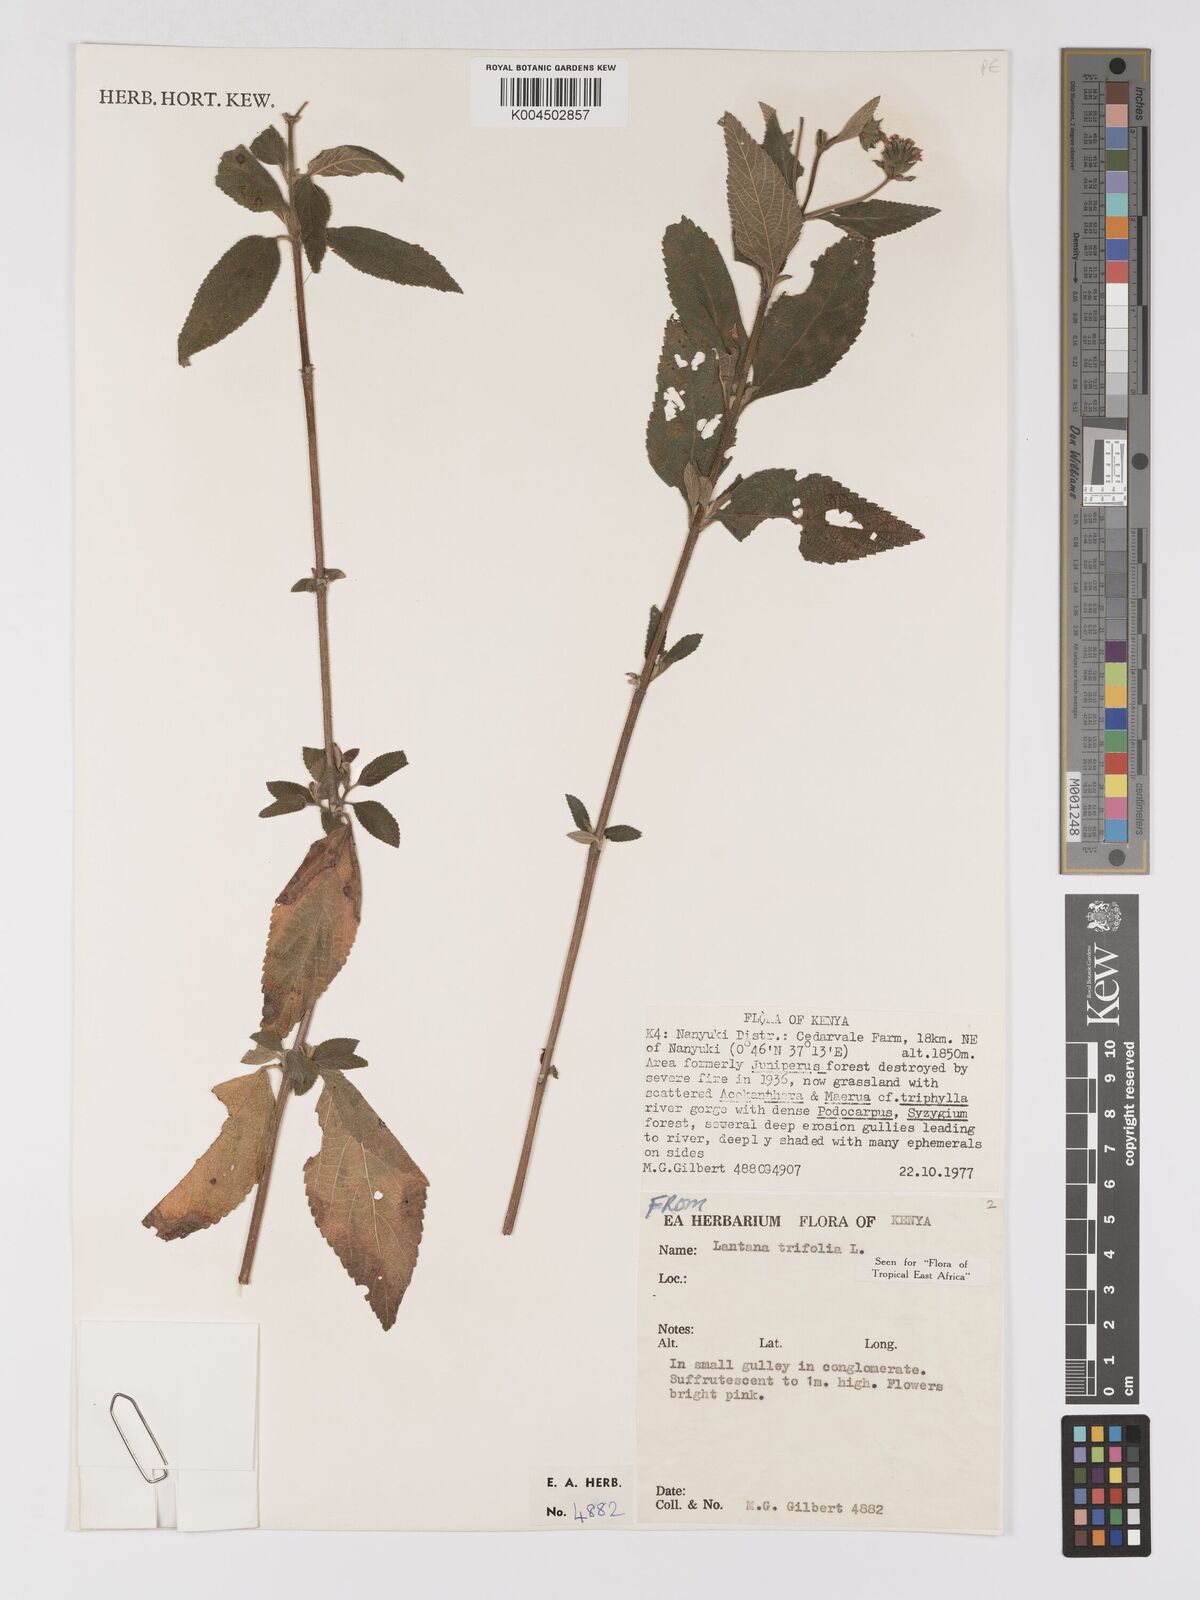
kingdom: Plantae
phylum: Tracheophyta
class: Magnoliopsida
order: Lamiales
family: Verbenaceae
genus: Lantana
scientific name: Lantana trifolia
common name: Sweet-sage
